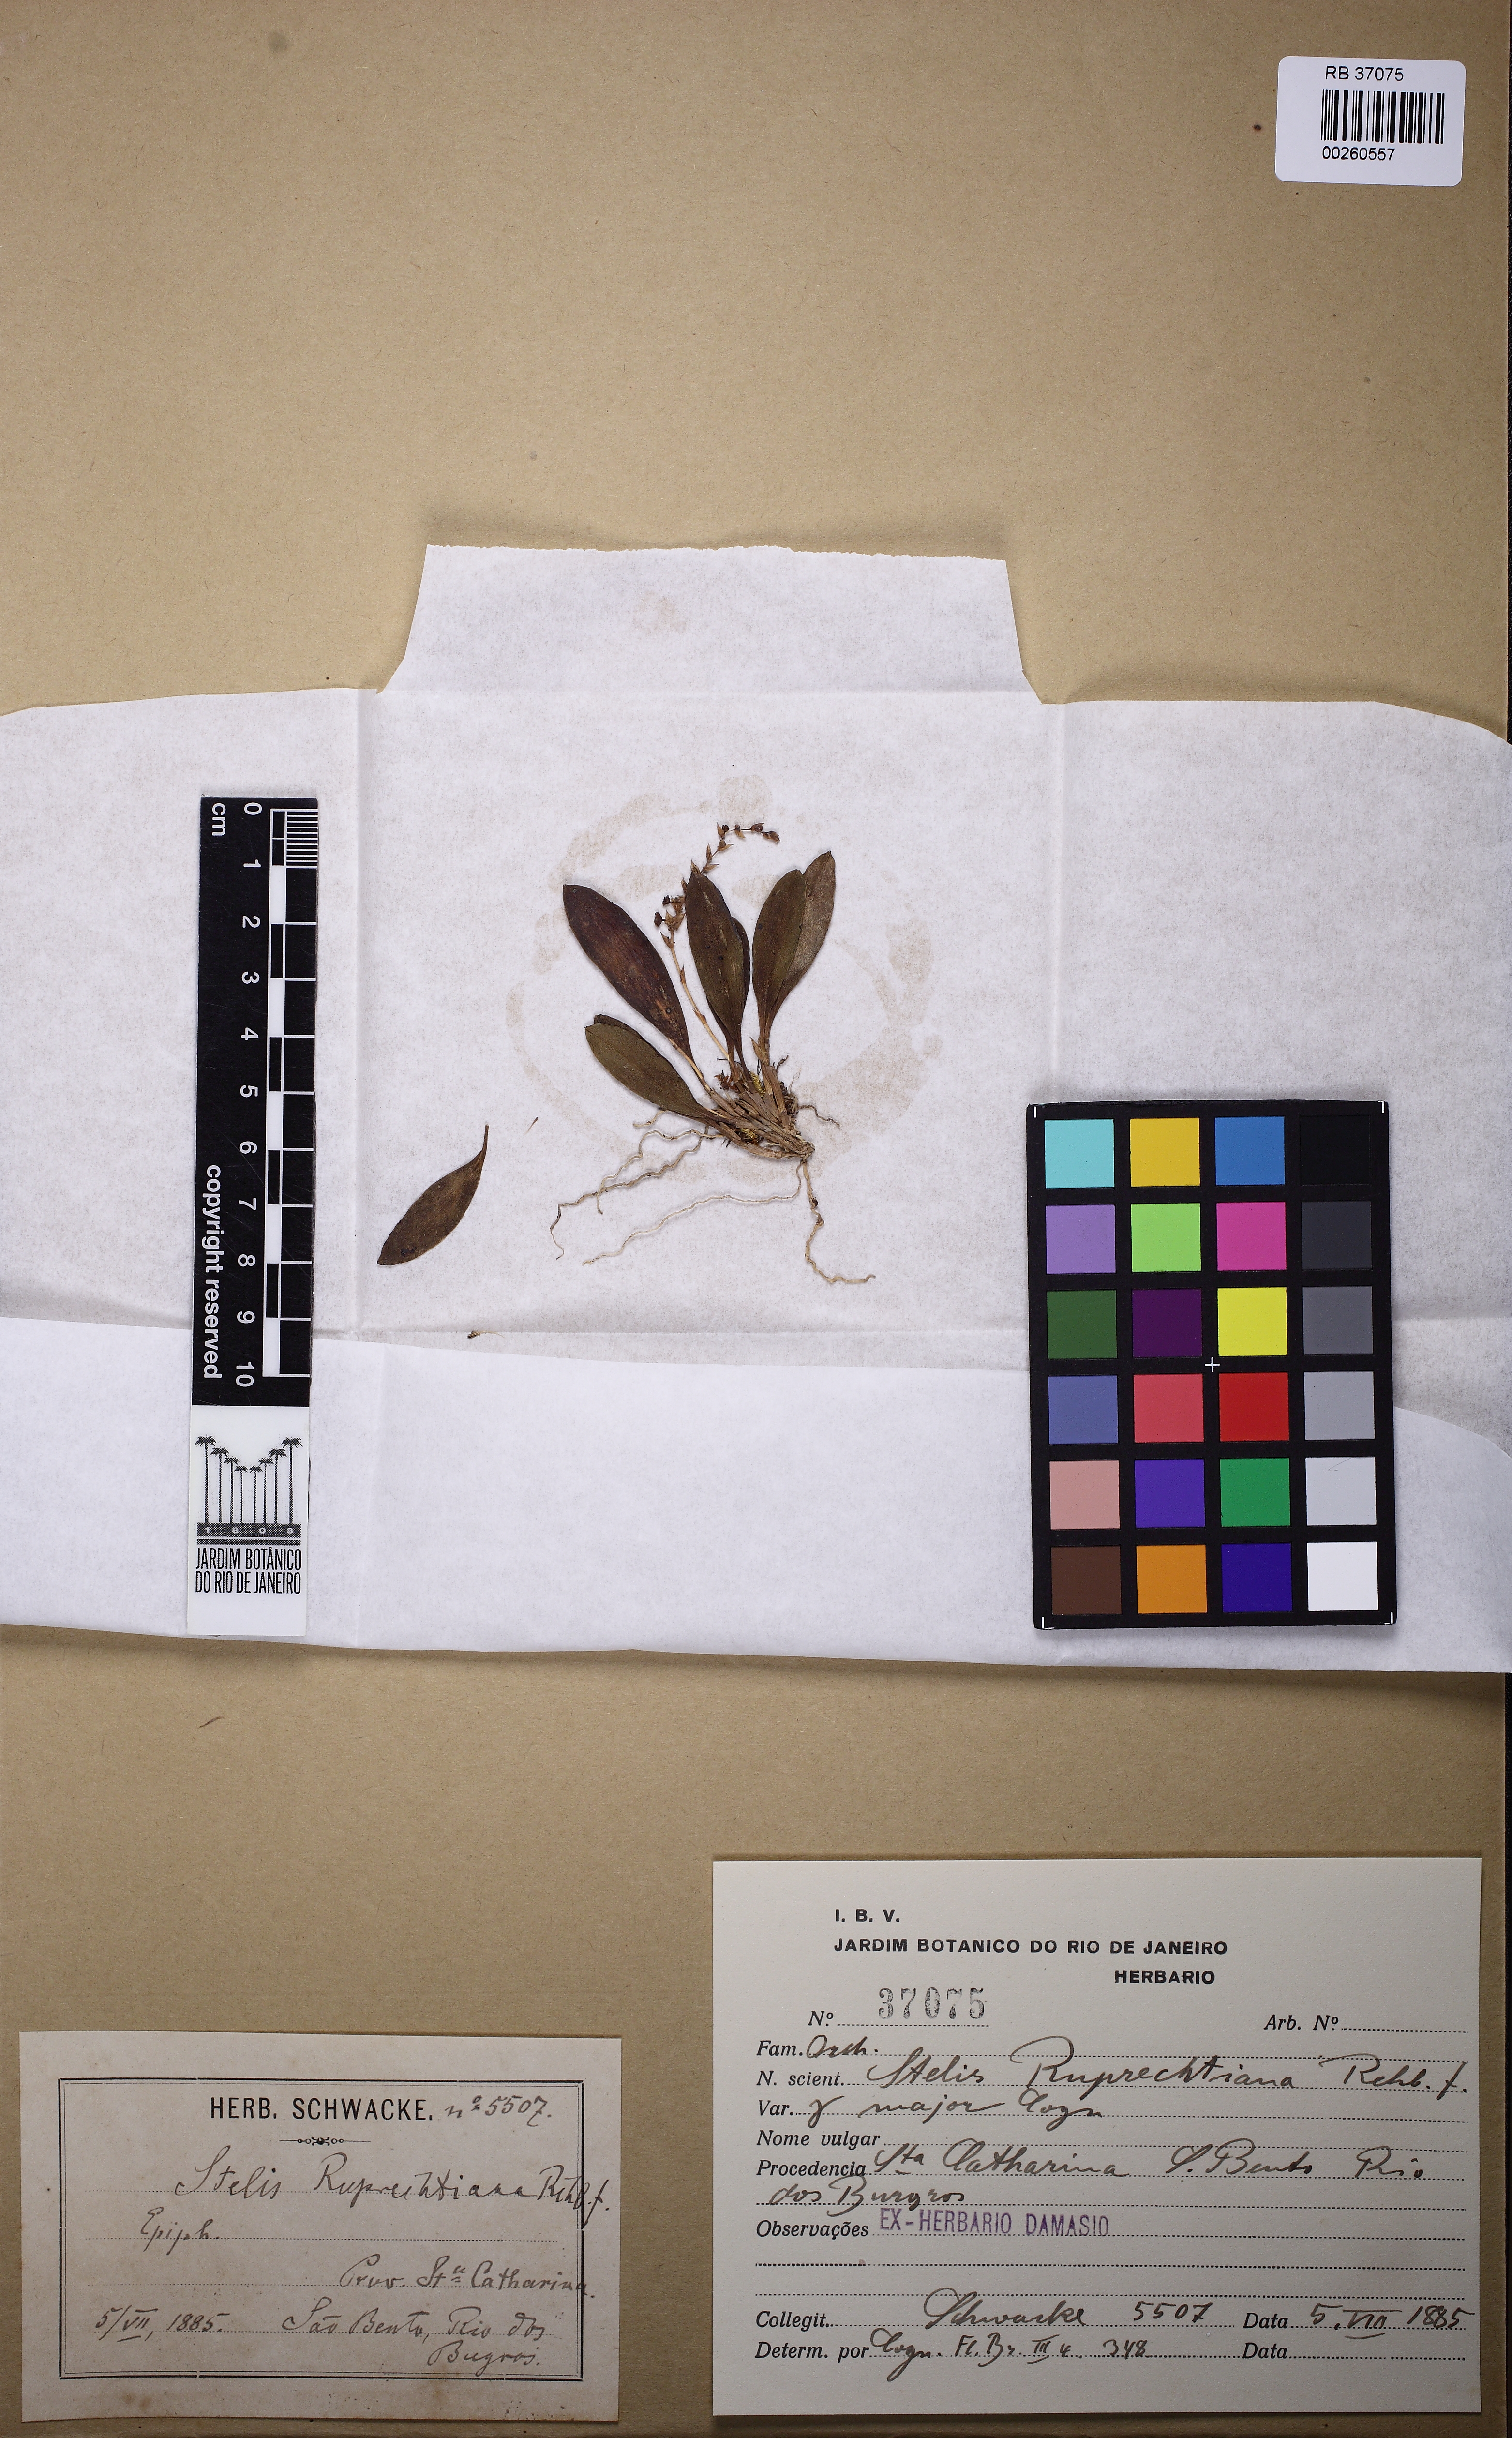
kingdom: Plantae
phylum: Tracheophyta
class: Liliopsida
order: Asparagales
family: Orchidaceae
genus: Stelis
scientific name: Stelis ruprechtiana
